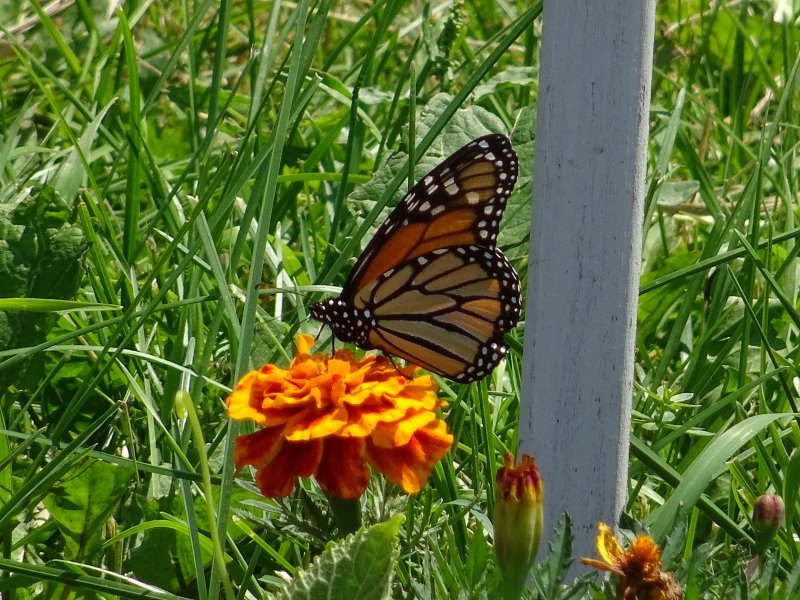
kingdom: Animalia
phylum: Arthropoda
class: Insecta
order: Lepidoptera
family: Nymphalidae
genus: Danaus
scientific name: Danaus plexippus
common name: Monarch
